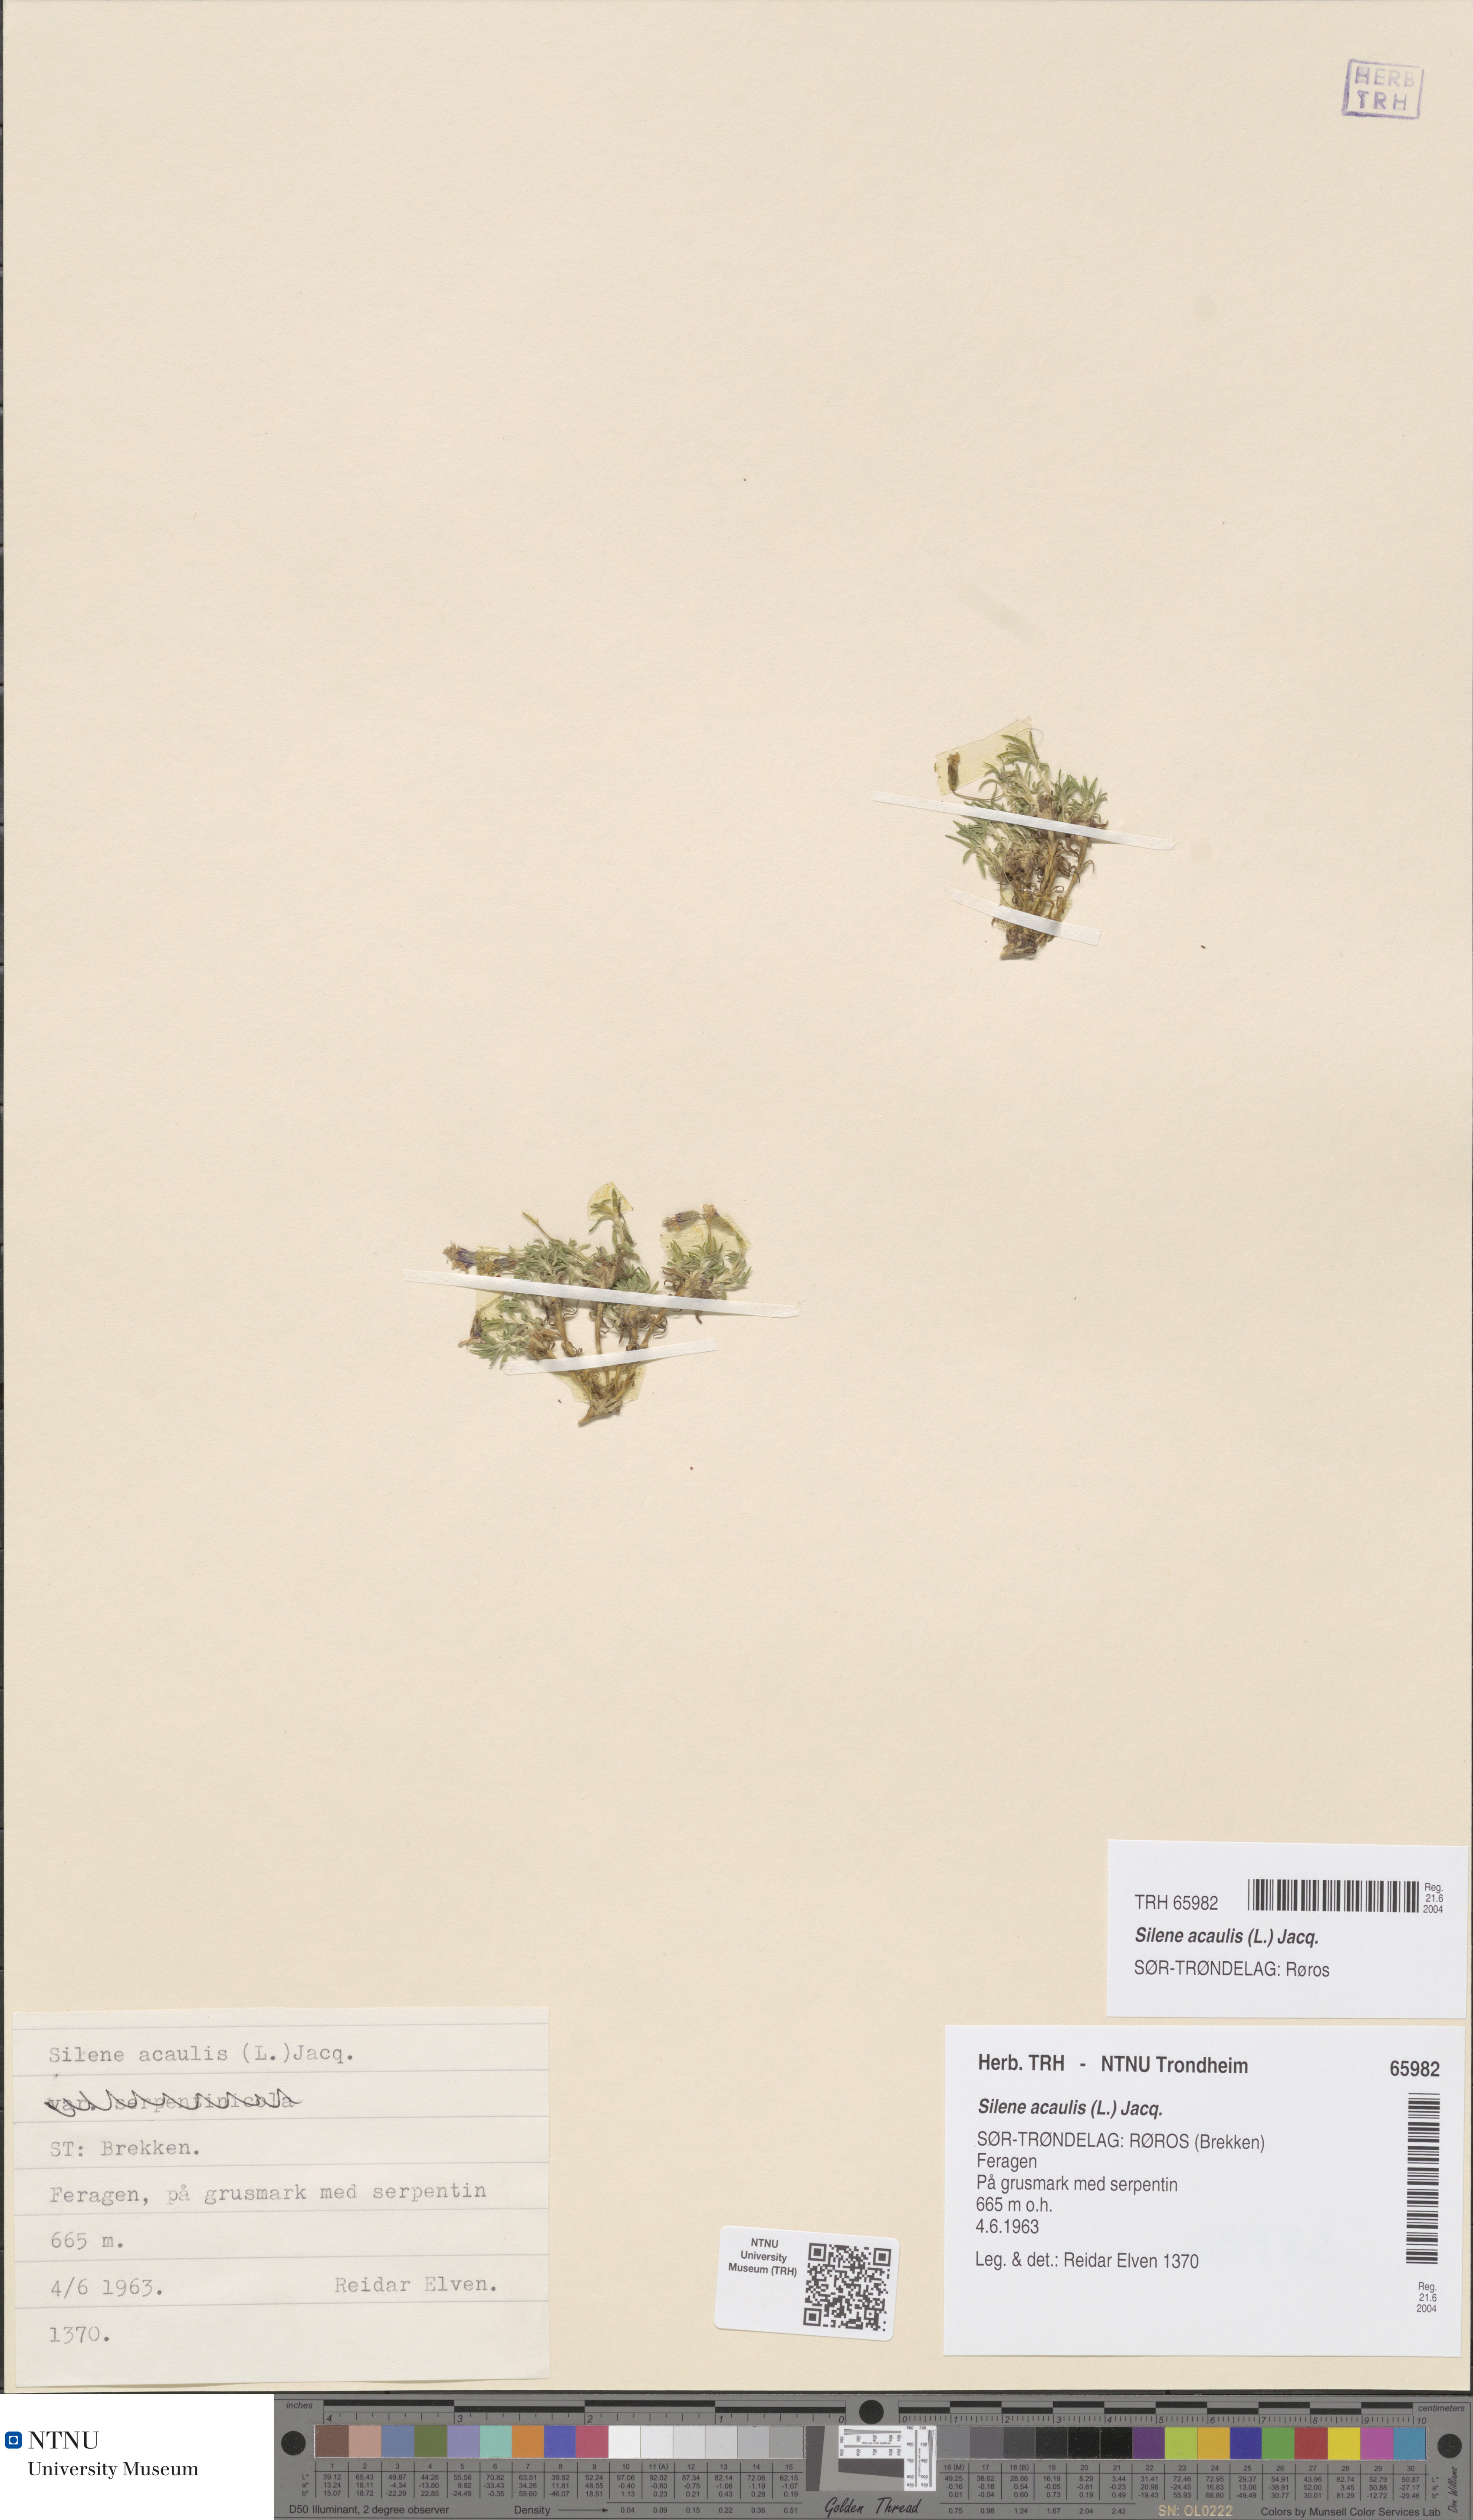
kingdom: Plantae
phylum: Tracheophyta
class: Magnoliopsida
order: Caryophyllales
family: Caryophyllaceae
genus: Silene
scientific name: Silene acaulis
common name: Moss campion
